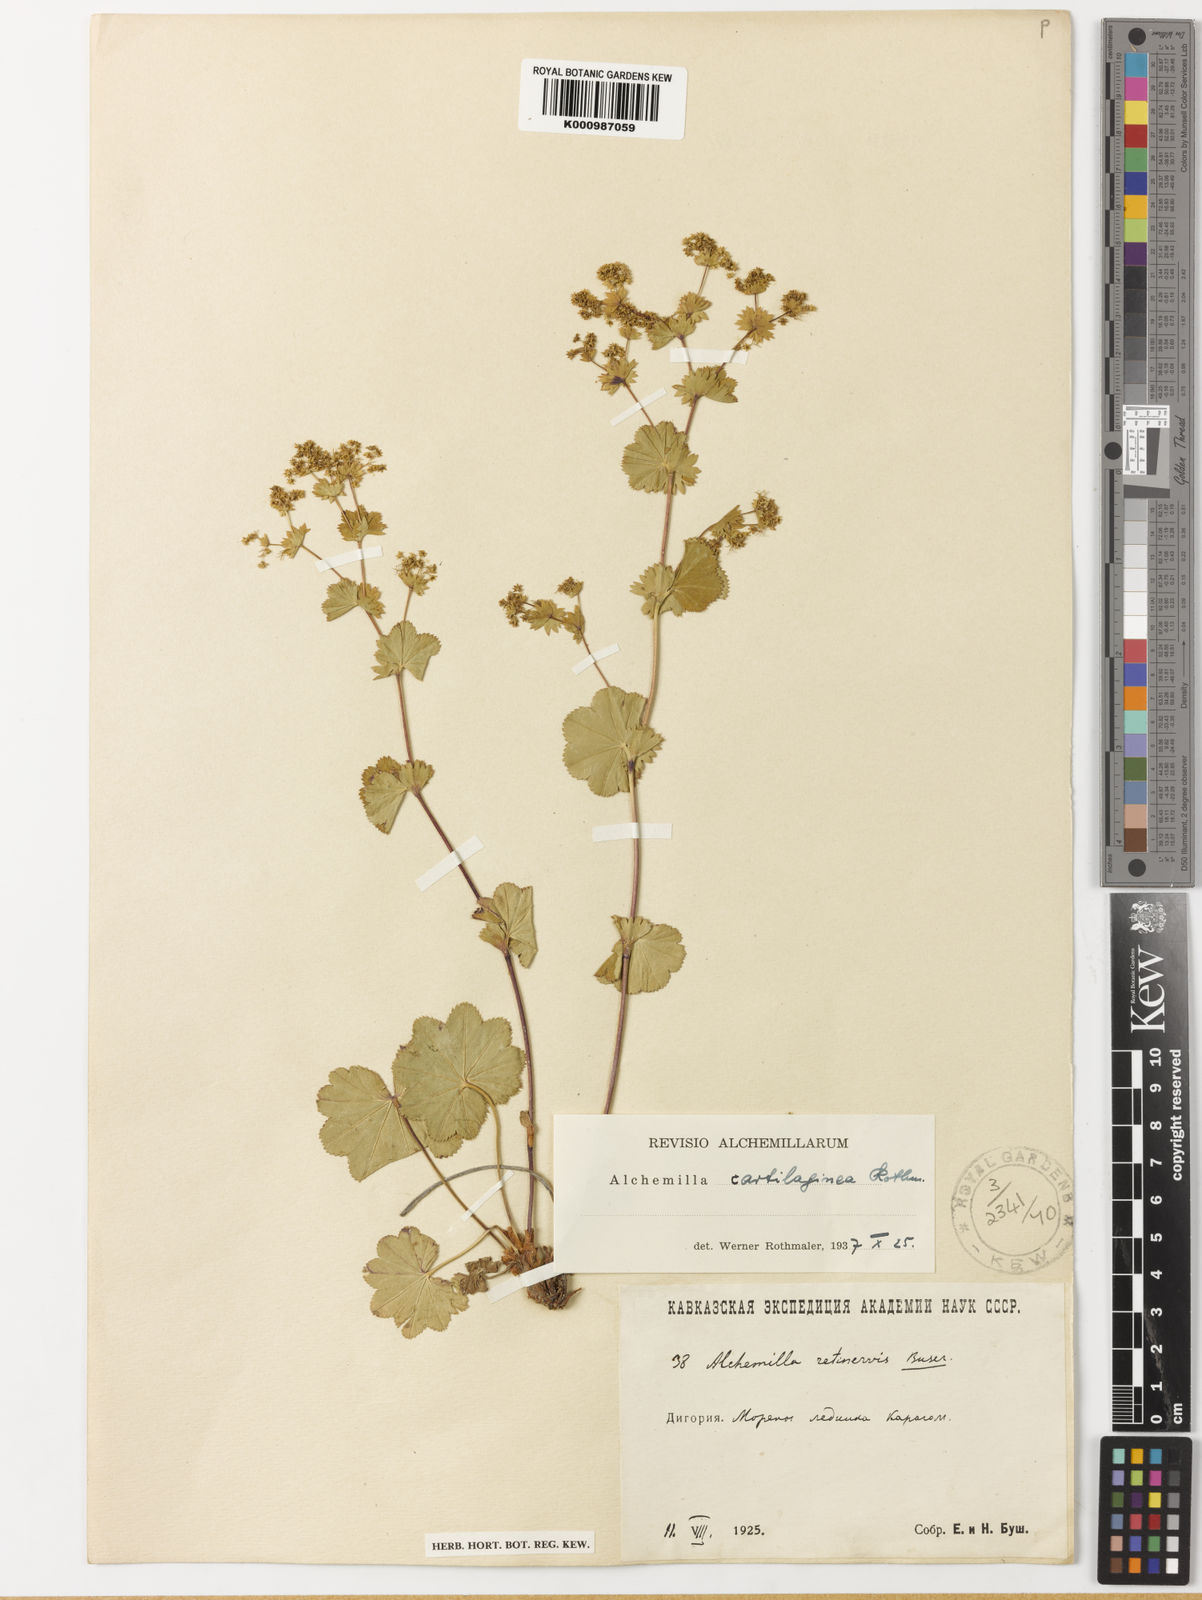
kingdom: Plantae
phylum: Tracheophyta
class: Magnoliopsida
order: Rosales
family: Rosaceae
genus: Alchemilla
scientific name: Alchemilla cartilaginea
